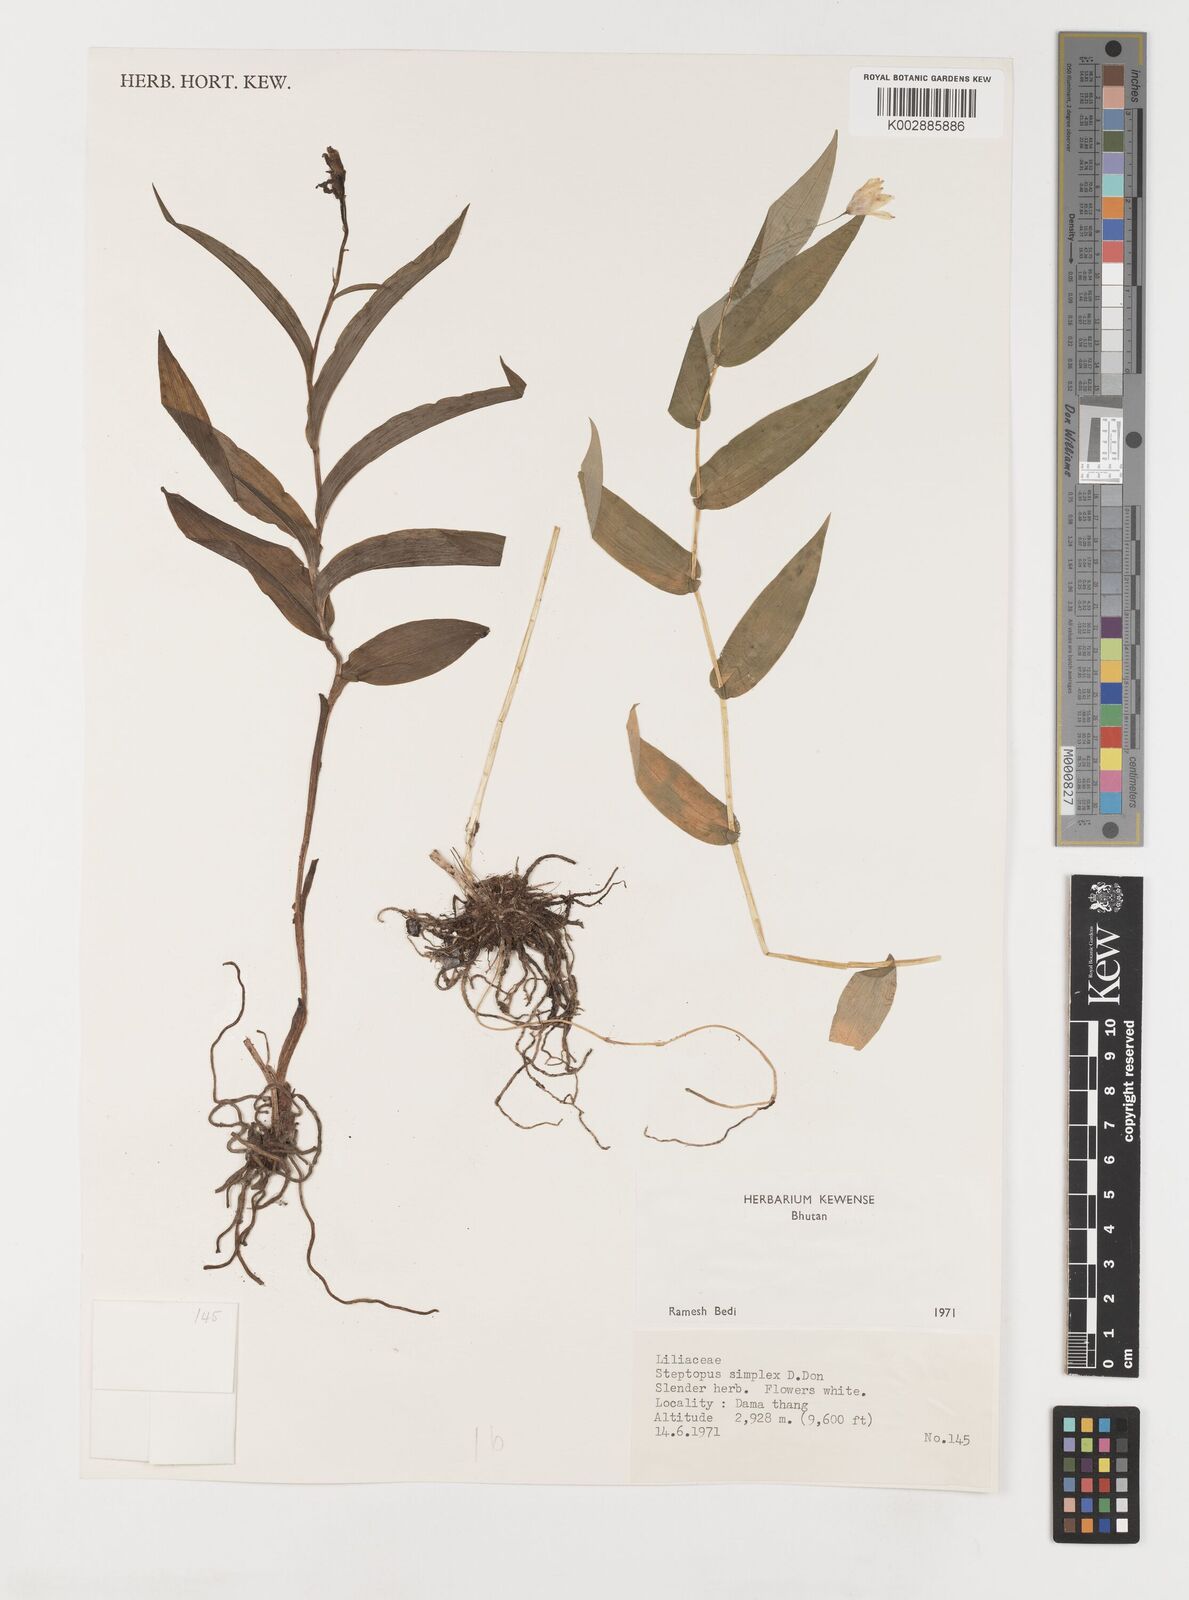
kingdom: Plantae
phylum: Tracheophyta
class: Liliopsida
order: Liliales
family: Liliaceae
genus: Streptopus
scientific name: Streptopus simplex
